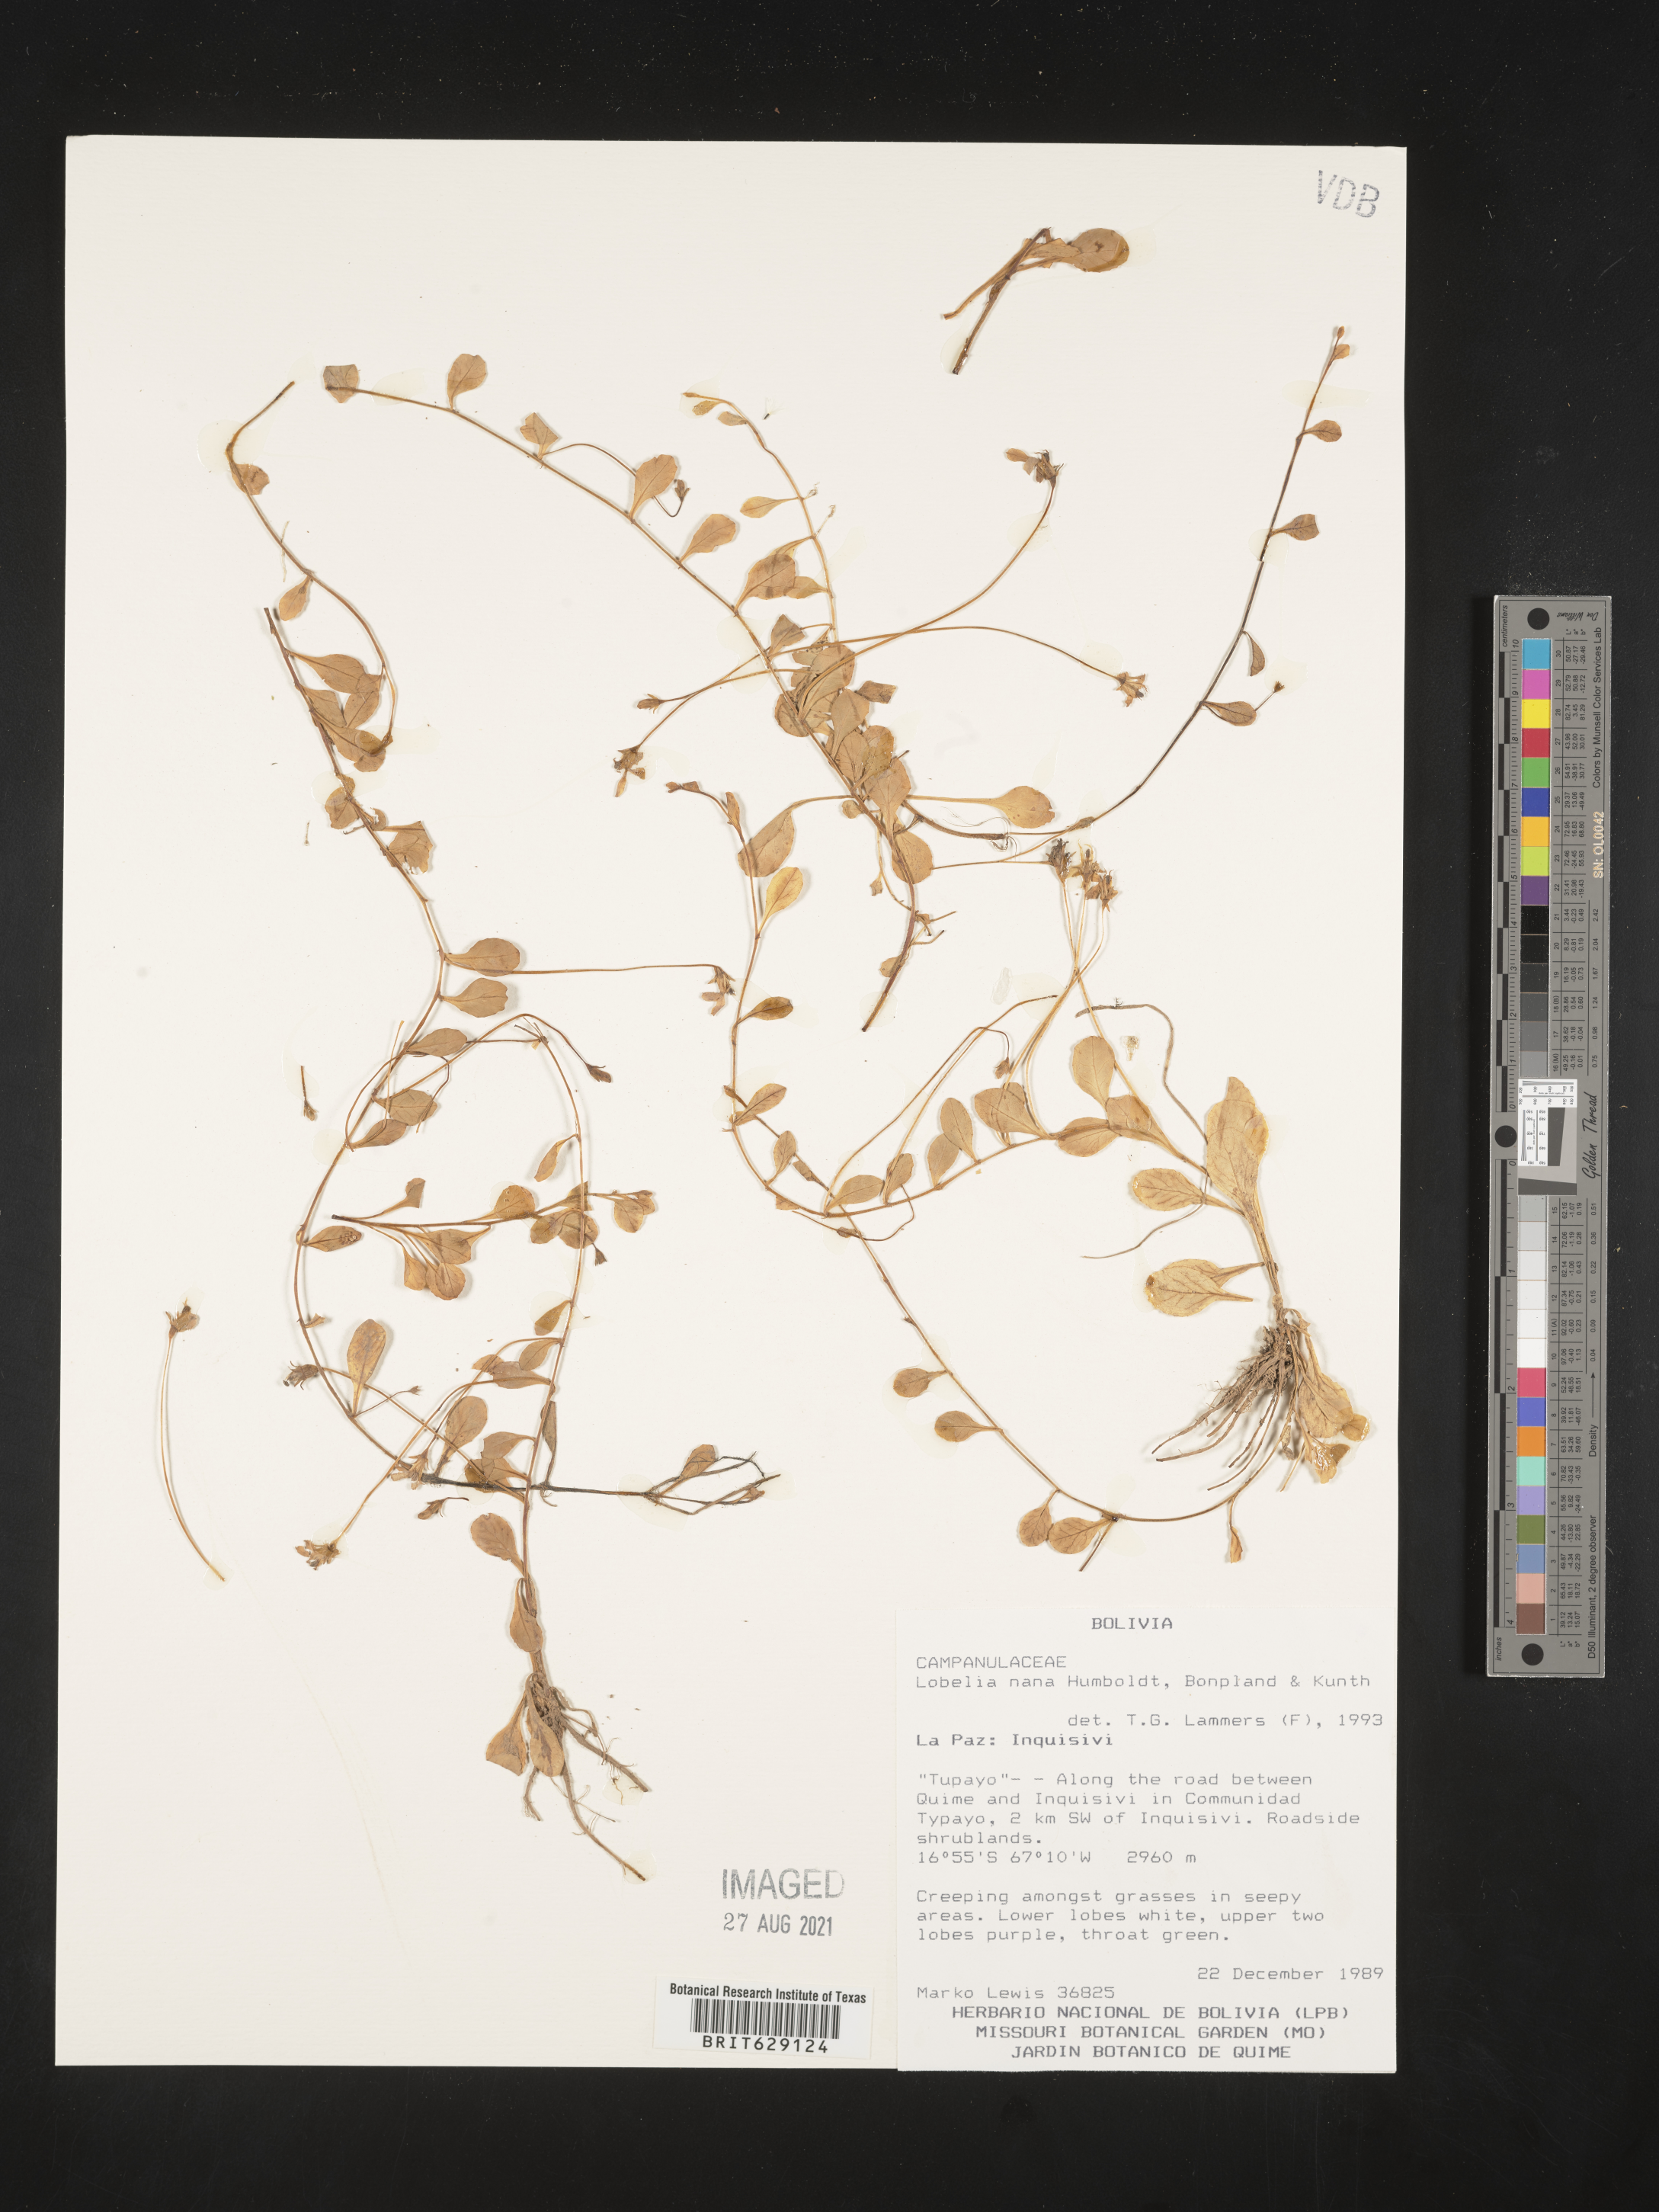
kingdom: Plantae
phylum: Tracheophyta
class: Magnoliopsida
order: Asterales
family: Campanulaceae
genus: Lobelia
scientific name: Lobelia nana
